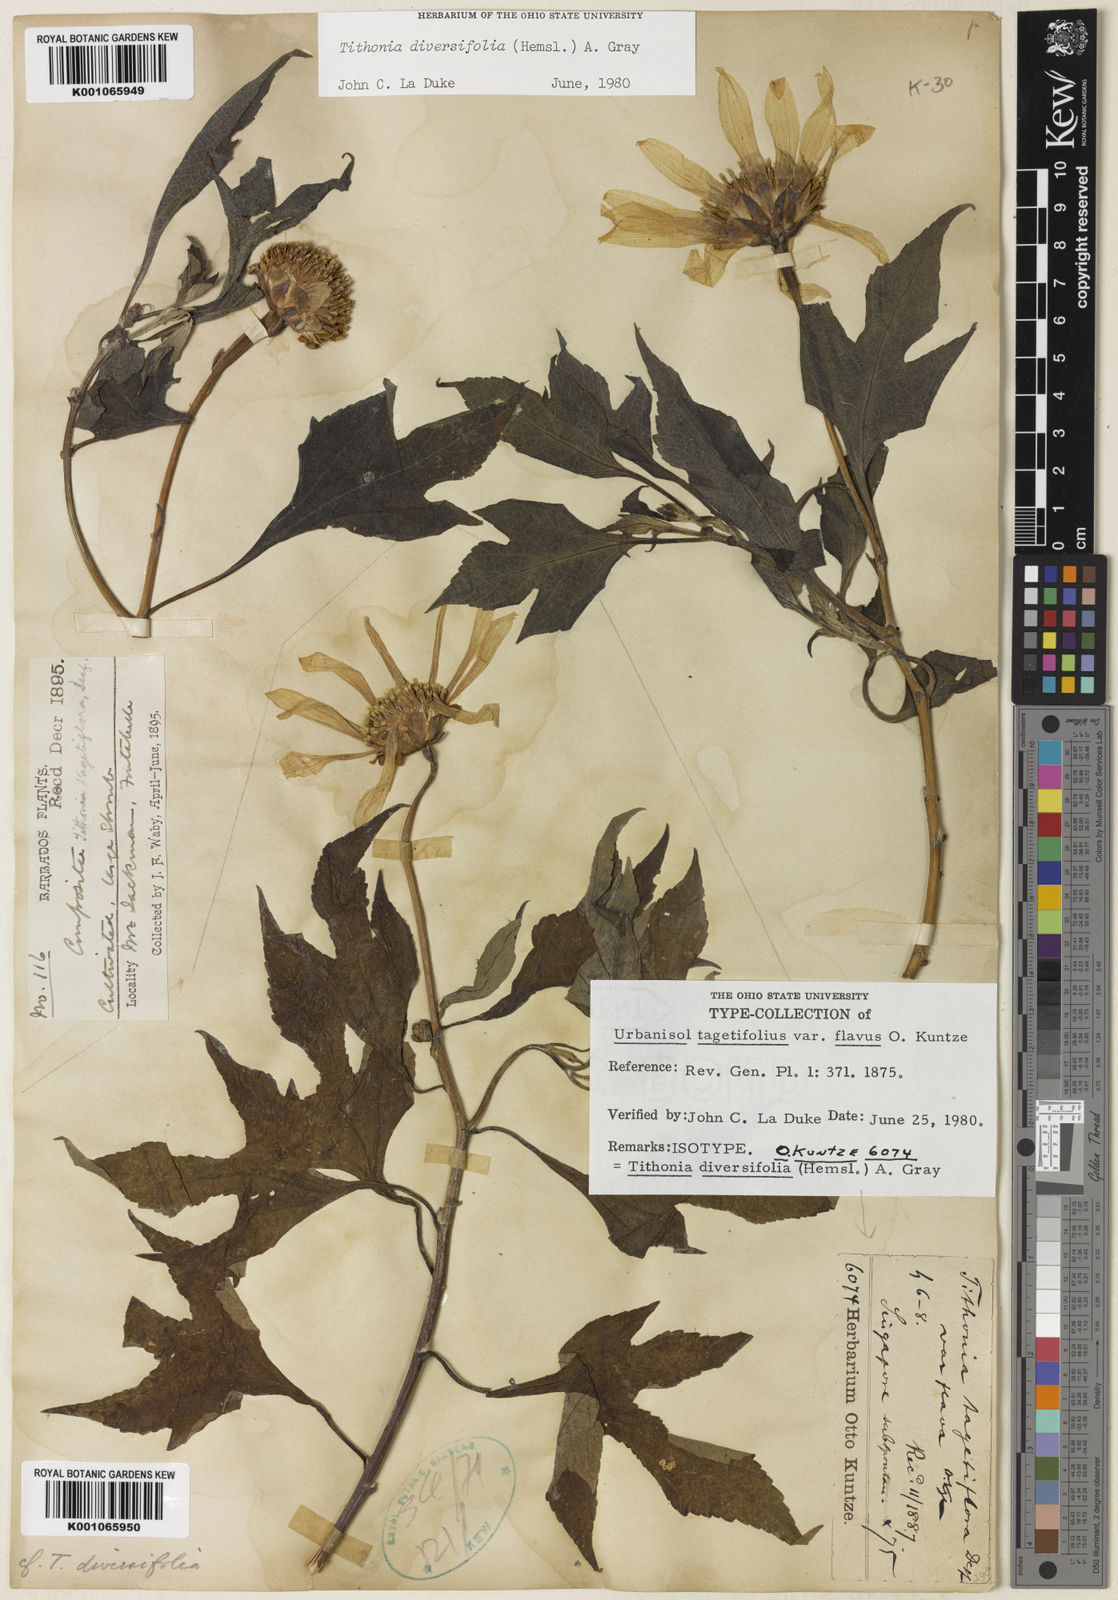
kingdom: Plantae
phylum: Tracheophyta
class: Magnoliopsida
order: Asterales
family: Asteraceae
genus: Tithonia
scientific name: Tithonia diversifolia
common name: Tree marigold
